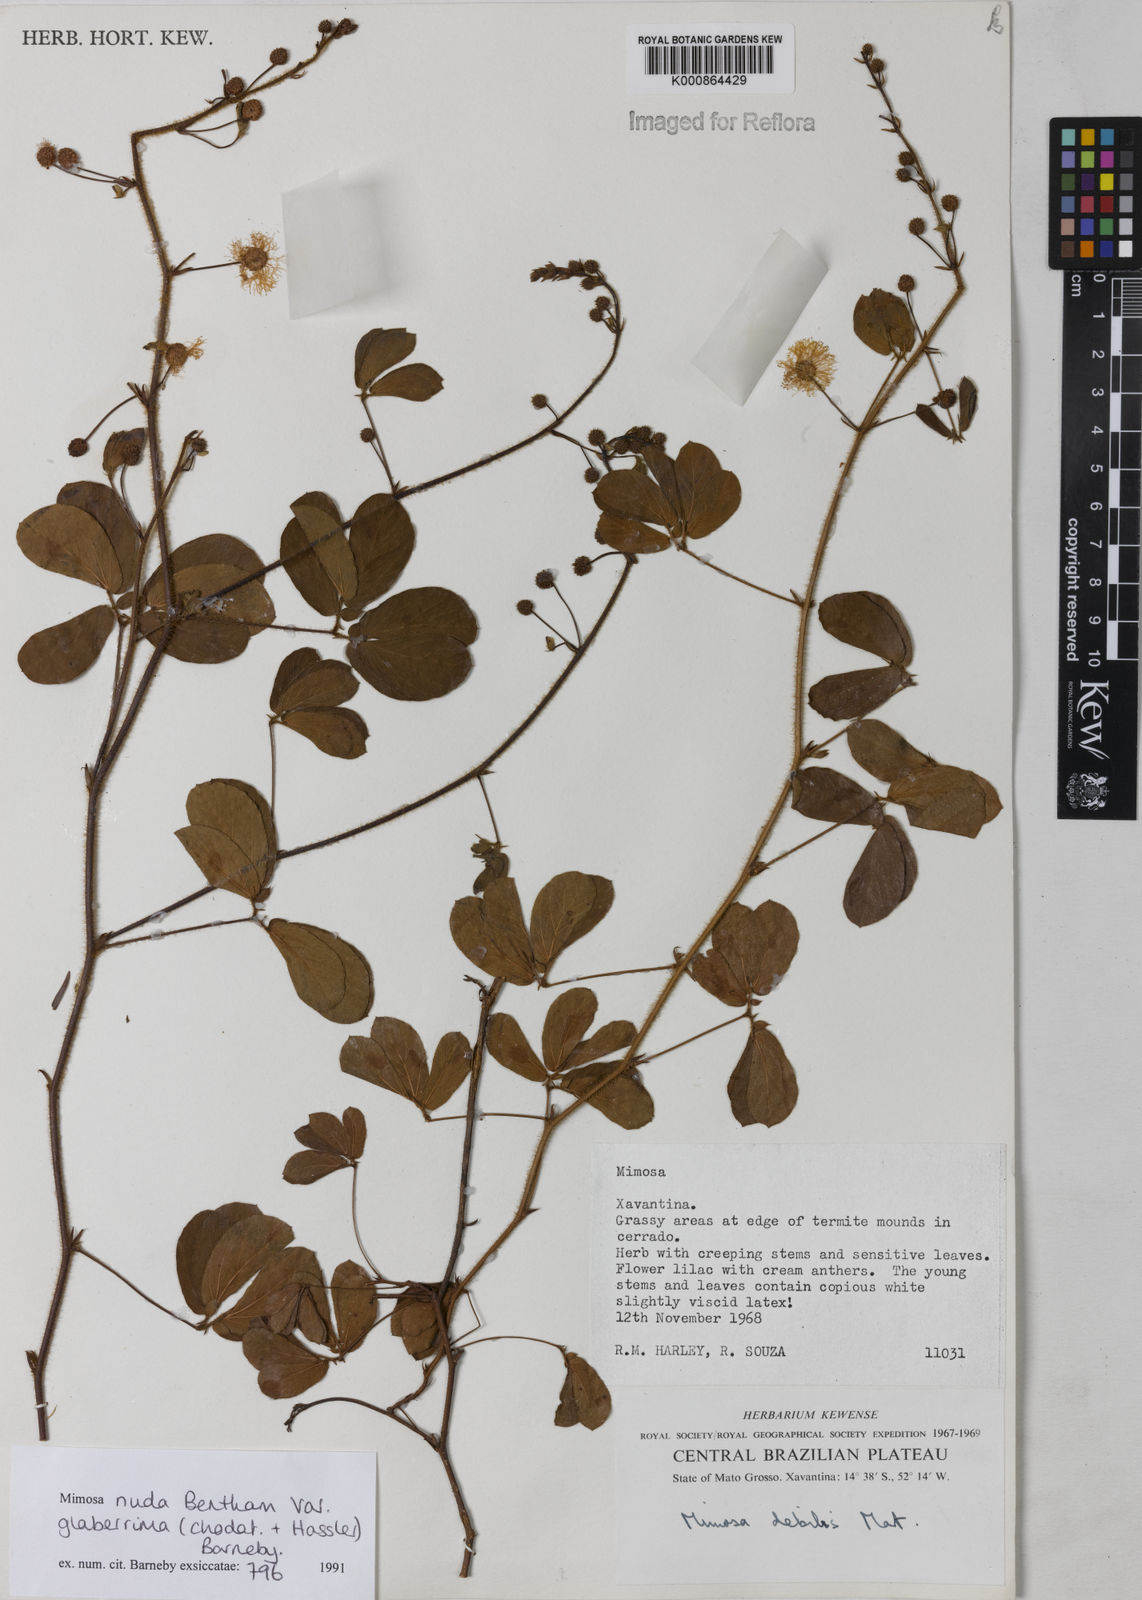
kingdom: Plantae
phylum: Tracheophyta
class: Magnoliopsida
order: Fabales
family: Fabaceae
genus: Mimosa
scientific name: Mimosa debilis
